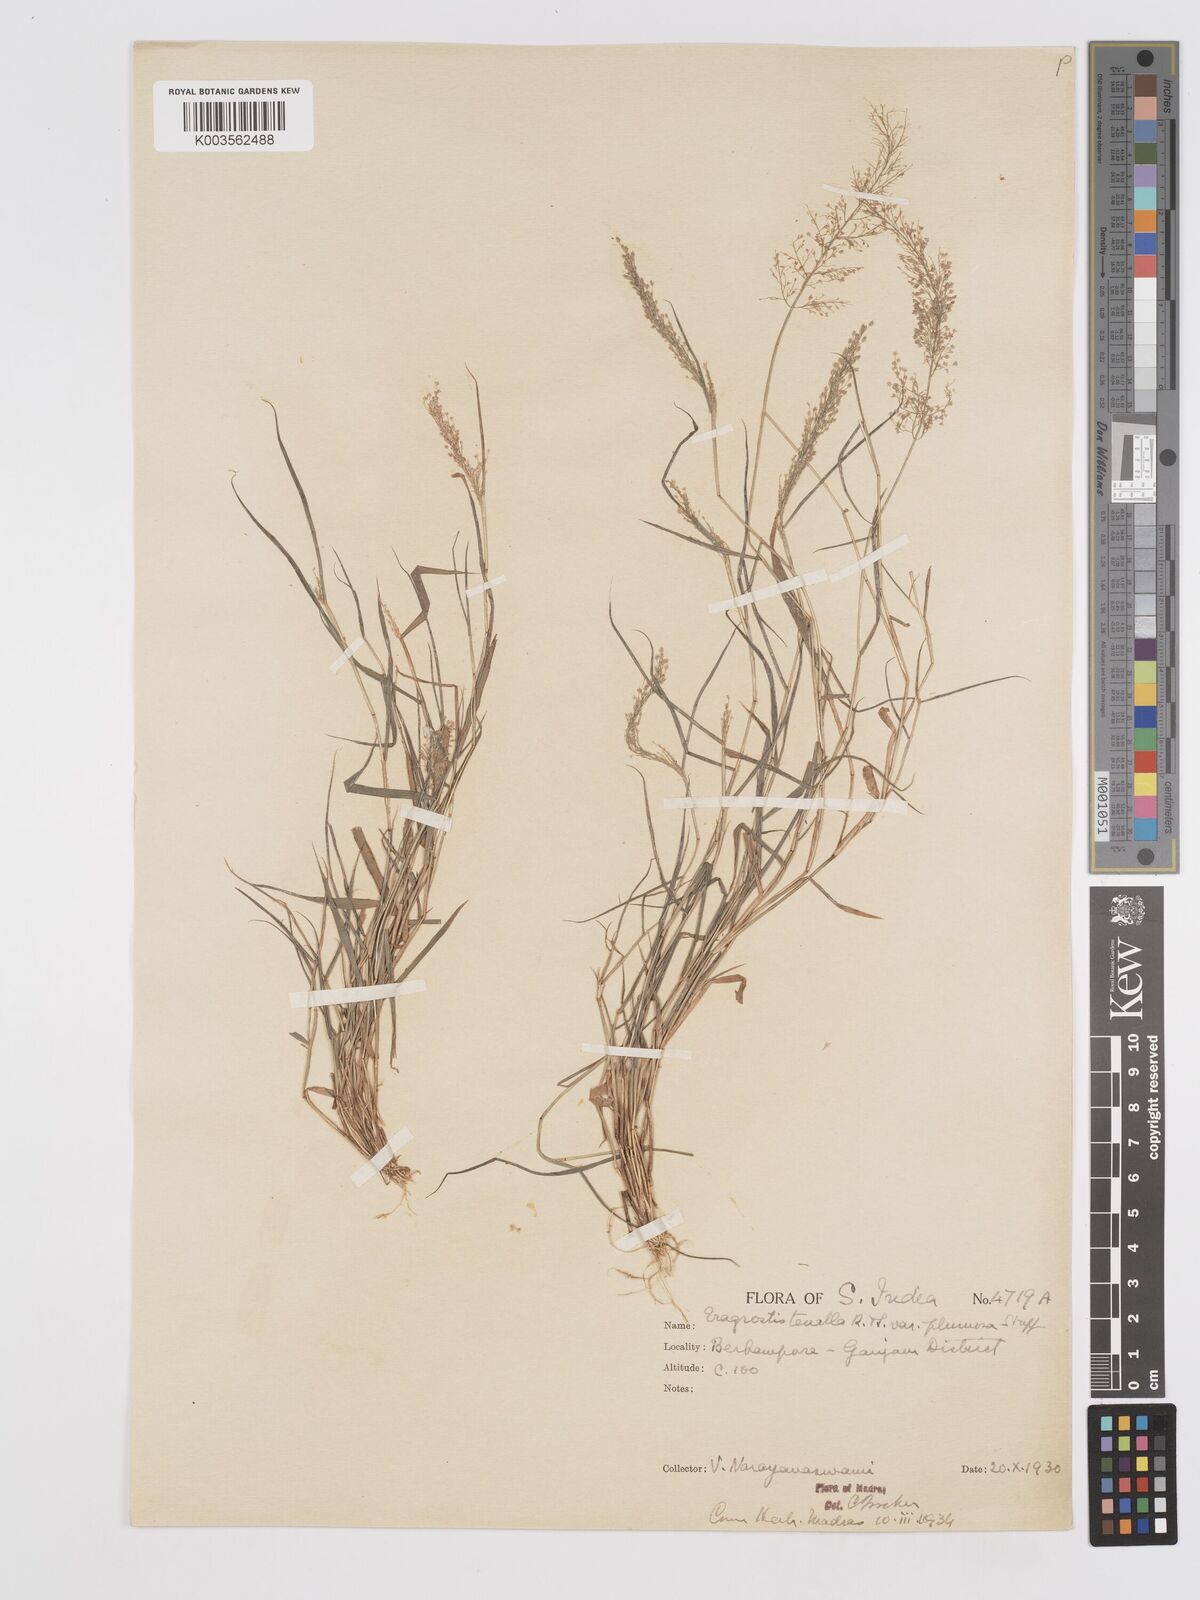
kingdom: Plantae
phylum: Tracheophyta
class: Liliopsida
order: Poales
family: Poaceae
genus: Eragrostis
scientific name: Eragrostis tenella
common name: Japanese lovegrass
